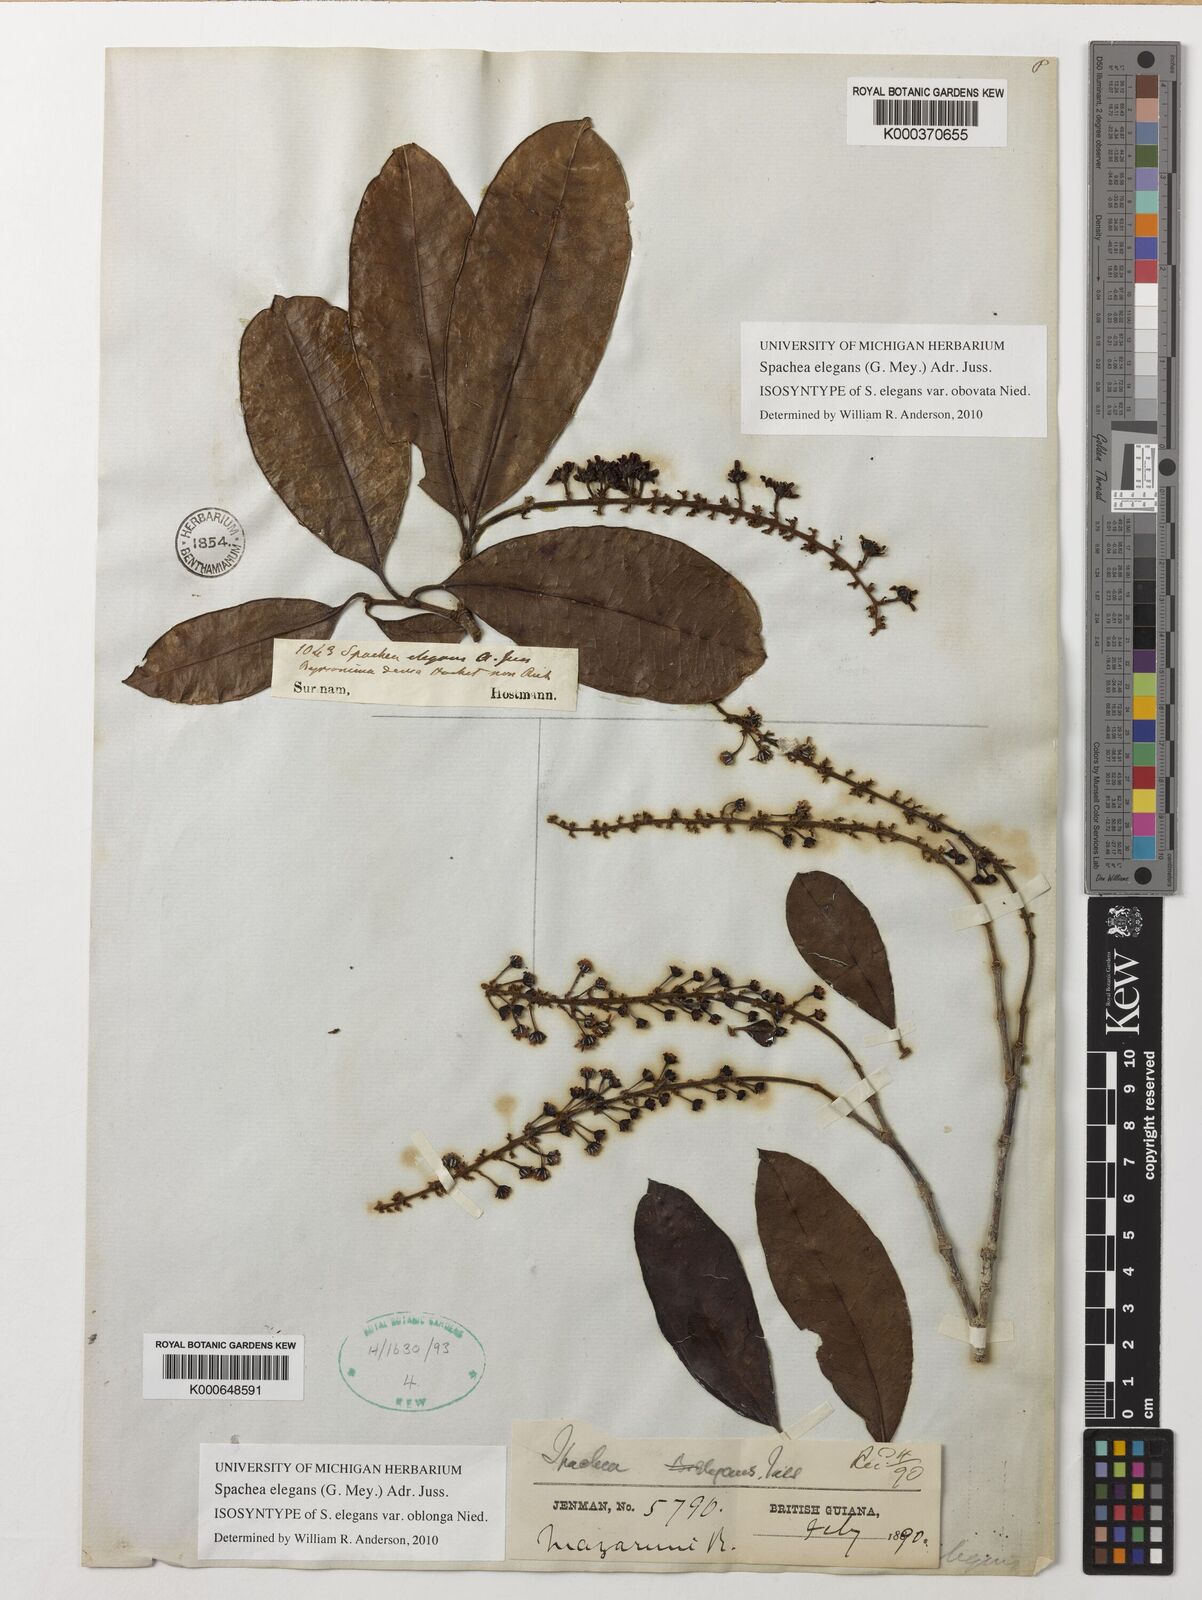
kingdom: Plantae
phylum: Tracheophyta
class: Magnoliopsida
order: Malpighiales
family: Malpighiaceae
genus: Spachea
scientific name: Spachea elegans
